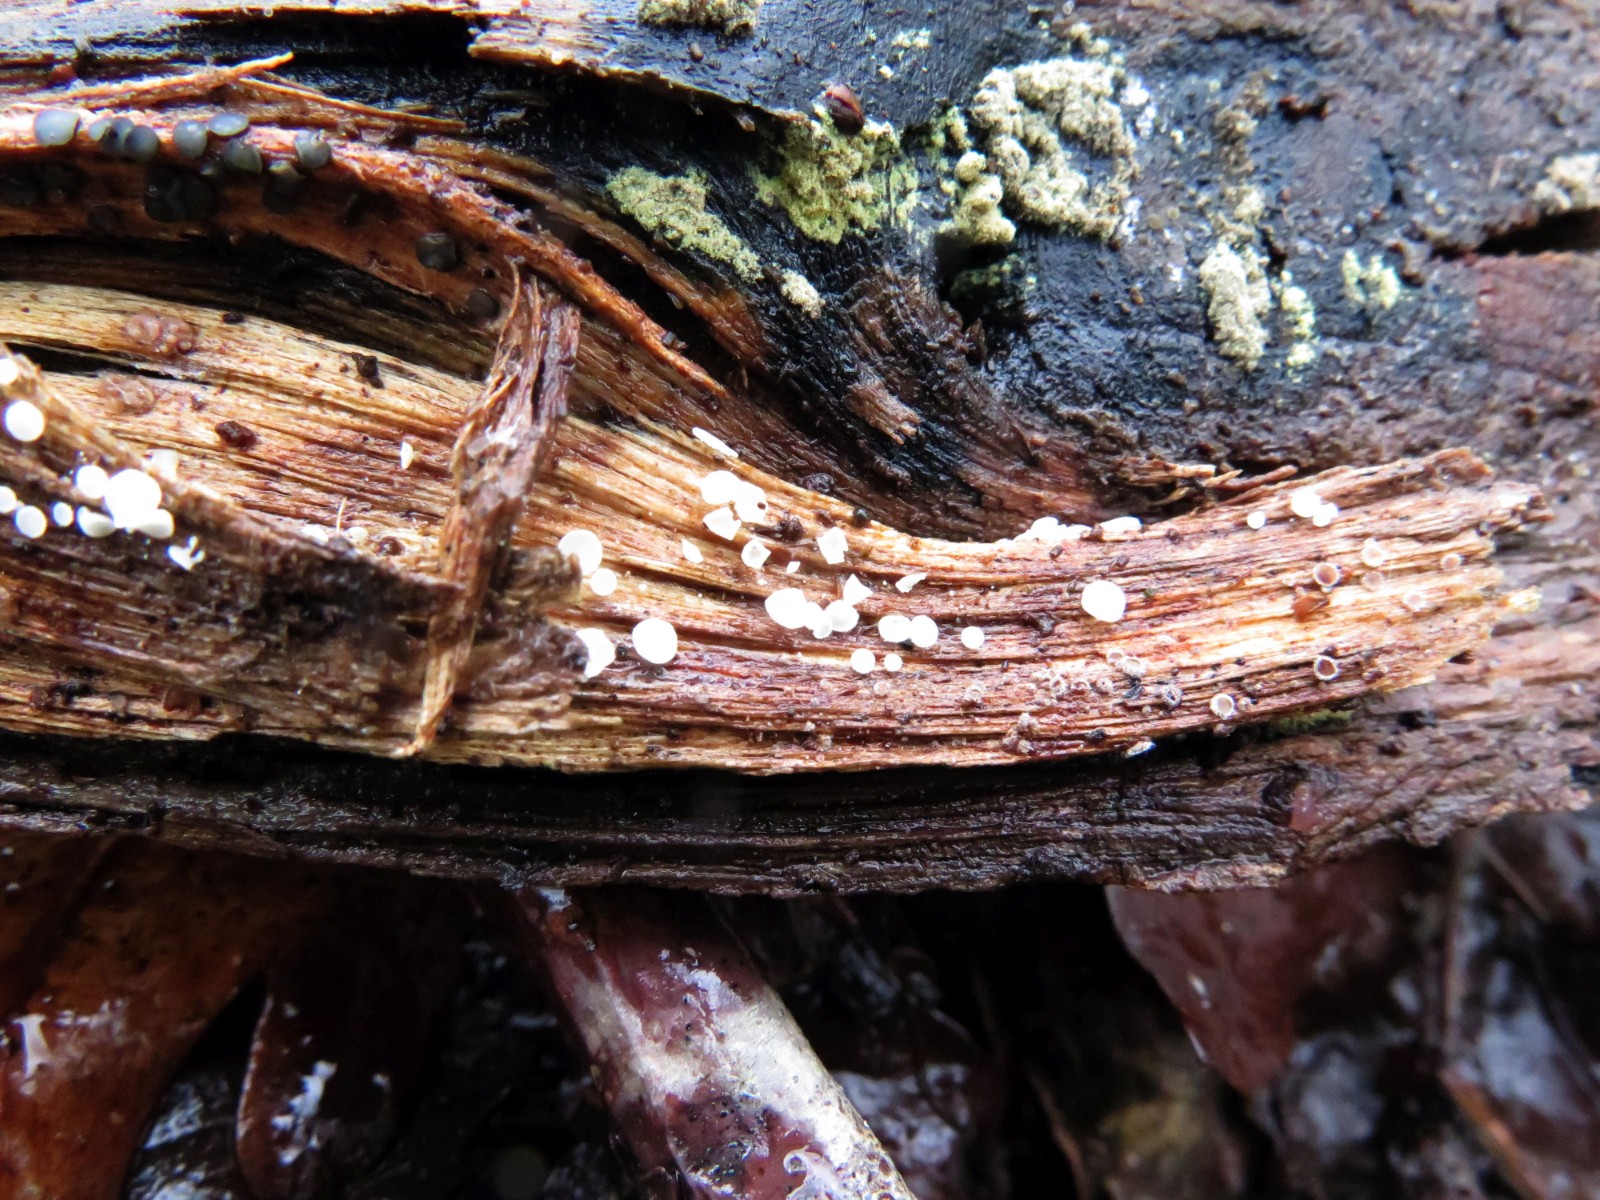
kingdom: Fungi
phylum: Ascomycota
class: Leotiomycetes
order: Helotiales
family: Lachnaceae
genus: Lachnum
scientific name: Lachnum impudicum
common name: vinter-frynseskive
